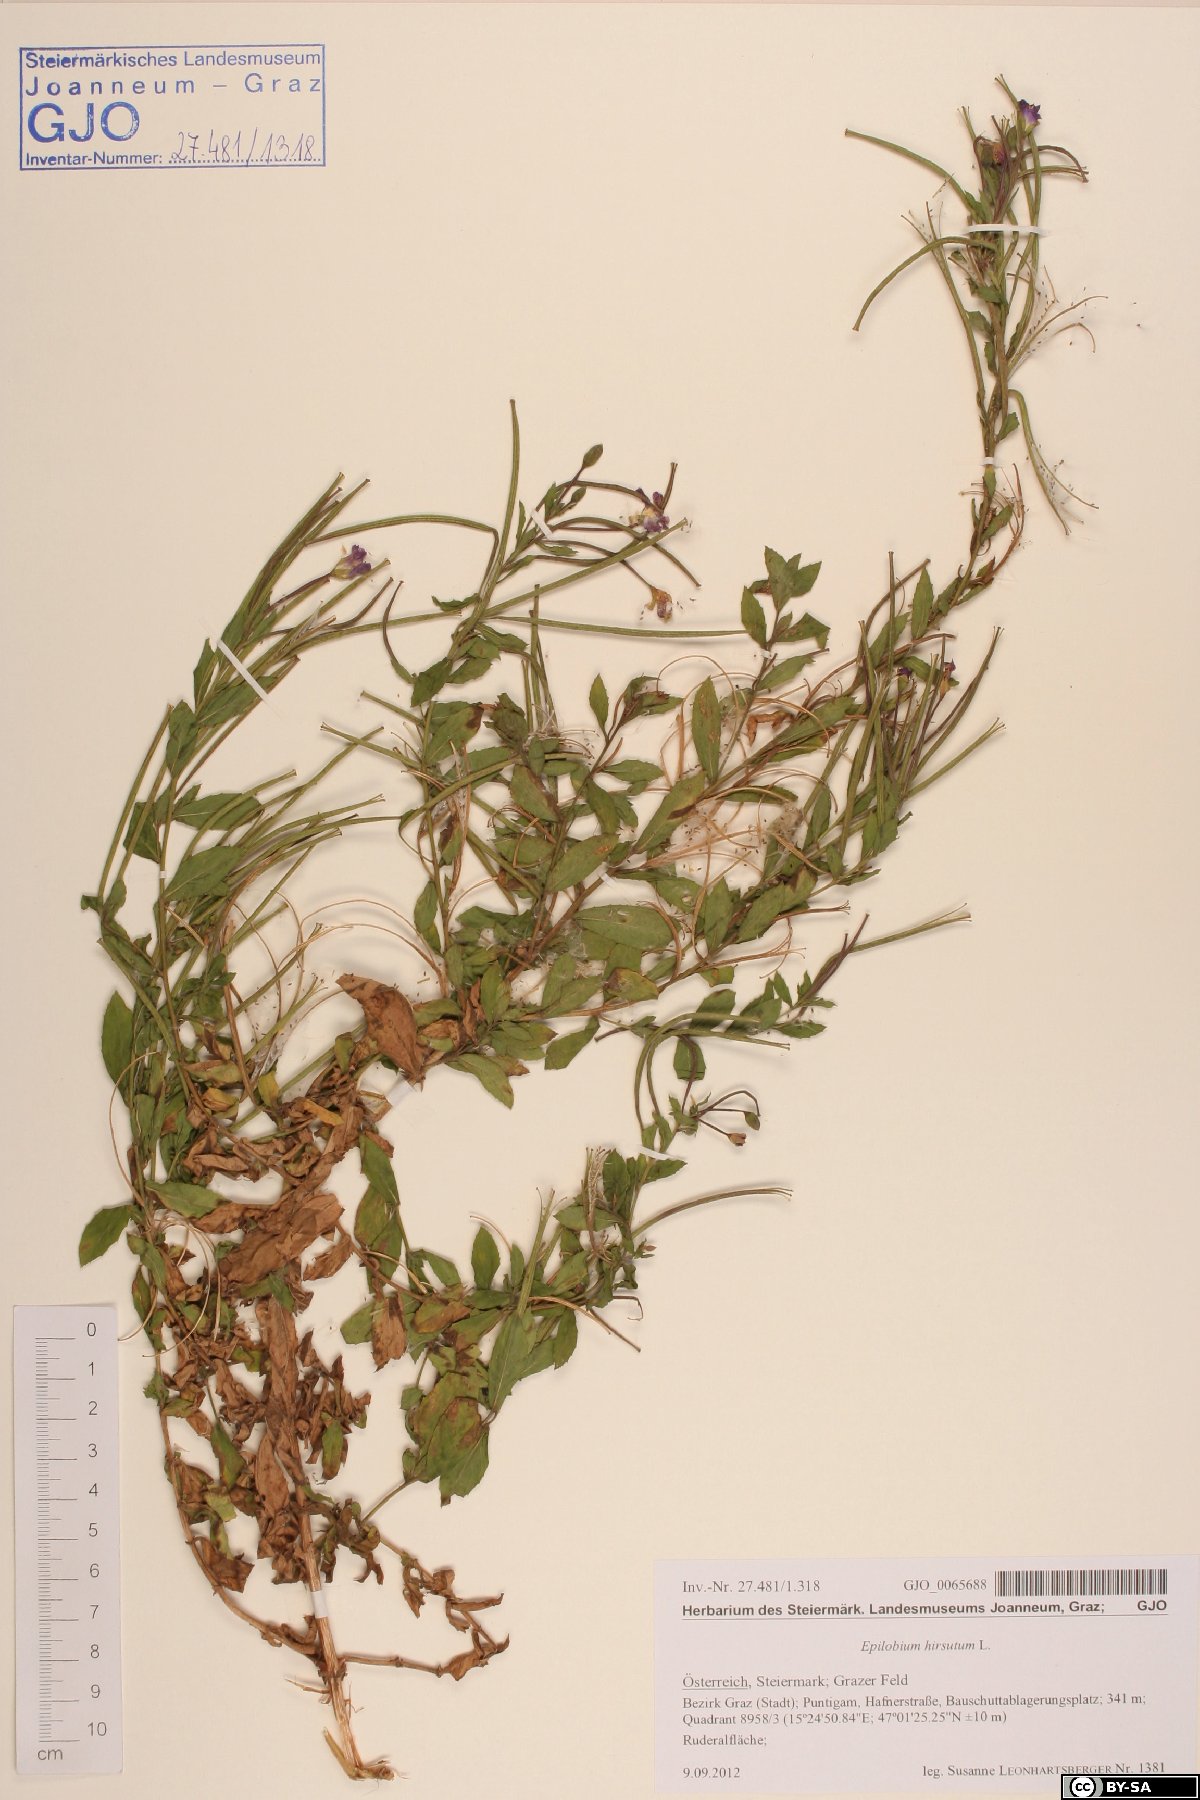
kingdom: Plantae
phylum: Tracheophyta
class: Magnoliopsida
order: Myrtales
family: Onagraceae
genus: Epilobium
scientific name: Epilobium hirsutum
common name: Great willowherb
